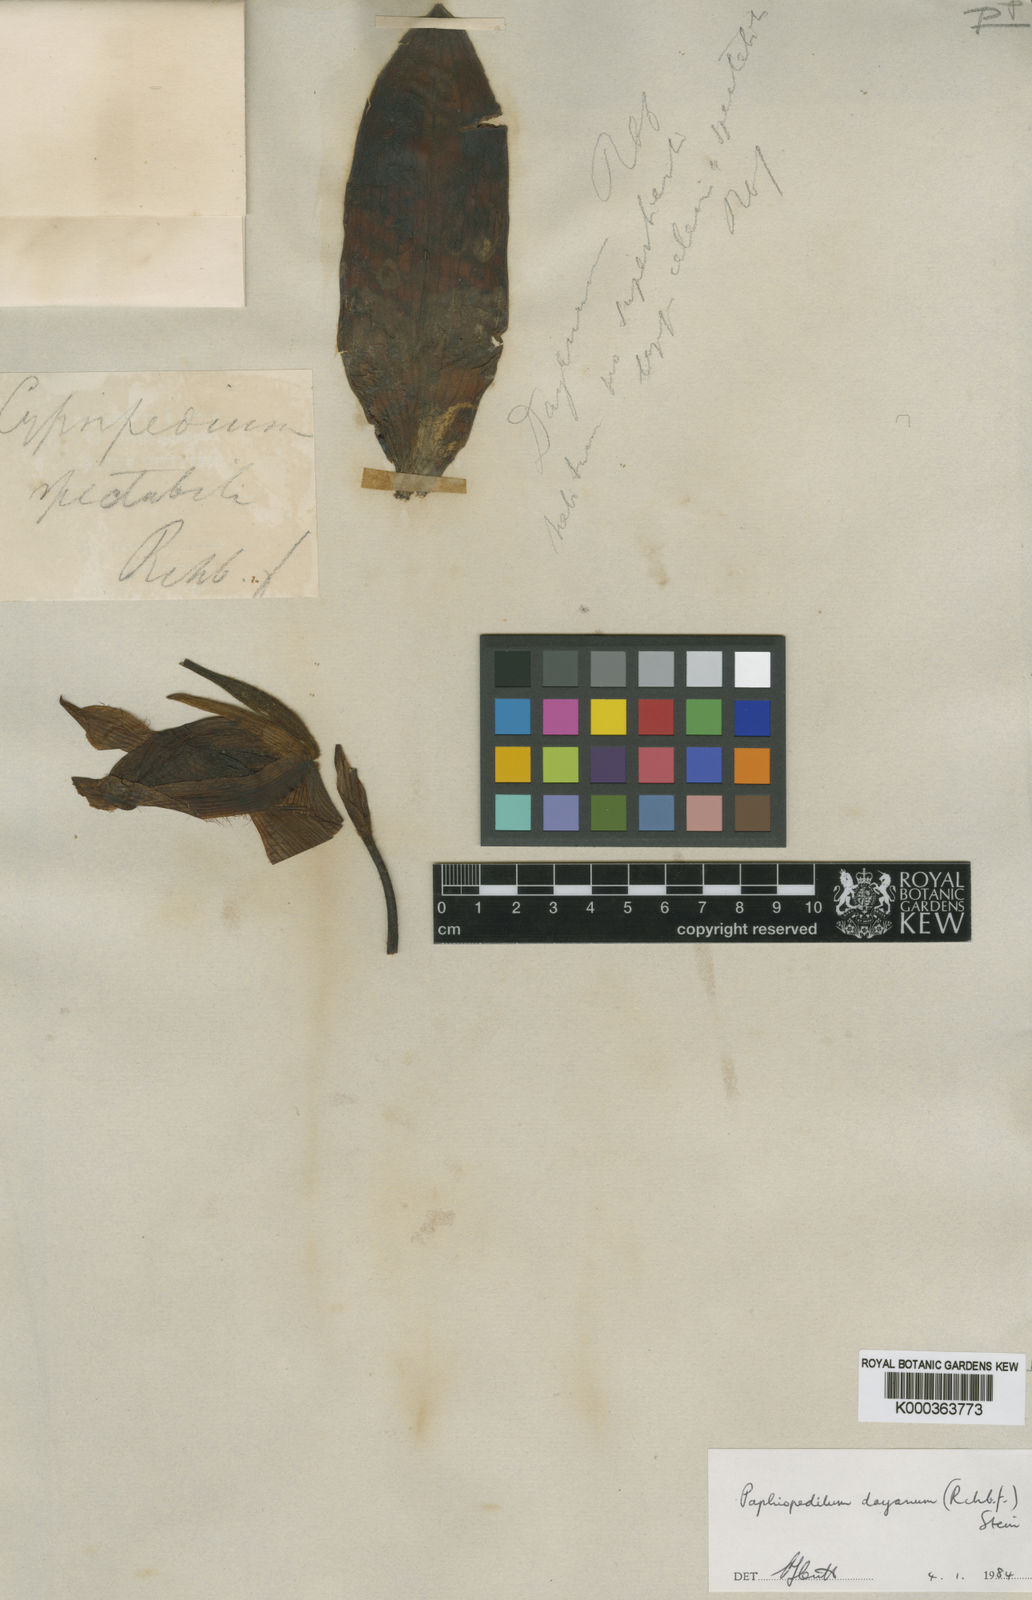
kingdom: Plantae
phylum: Tracheophyta
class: Liliopsida
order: Asparagales
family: Orchidaceae
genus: Paphiopedilum
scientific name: Paphiopedilum dayanum
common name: Day's paphiopedilum
